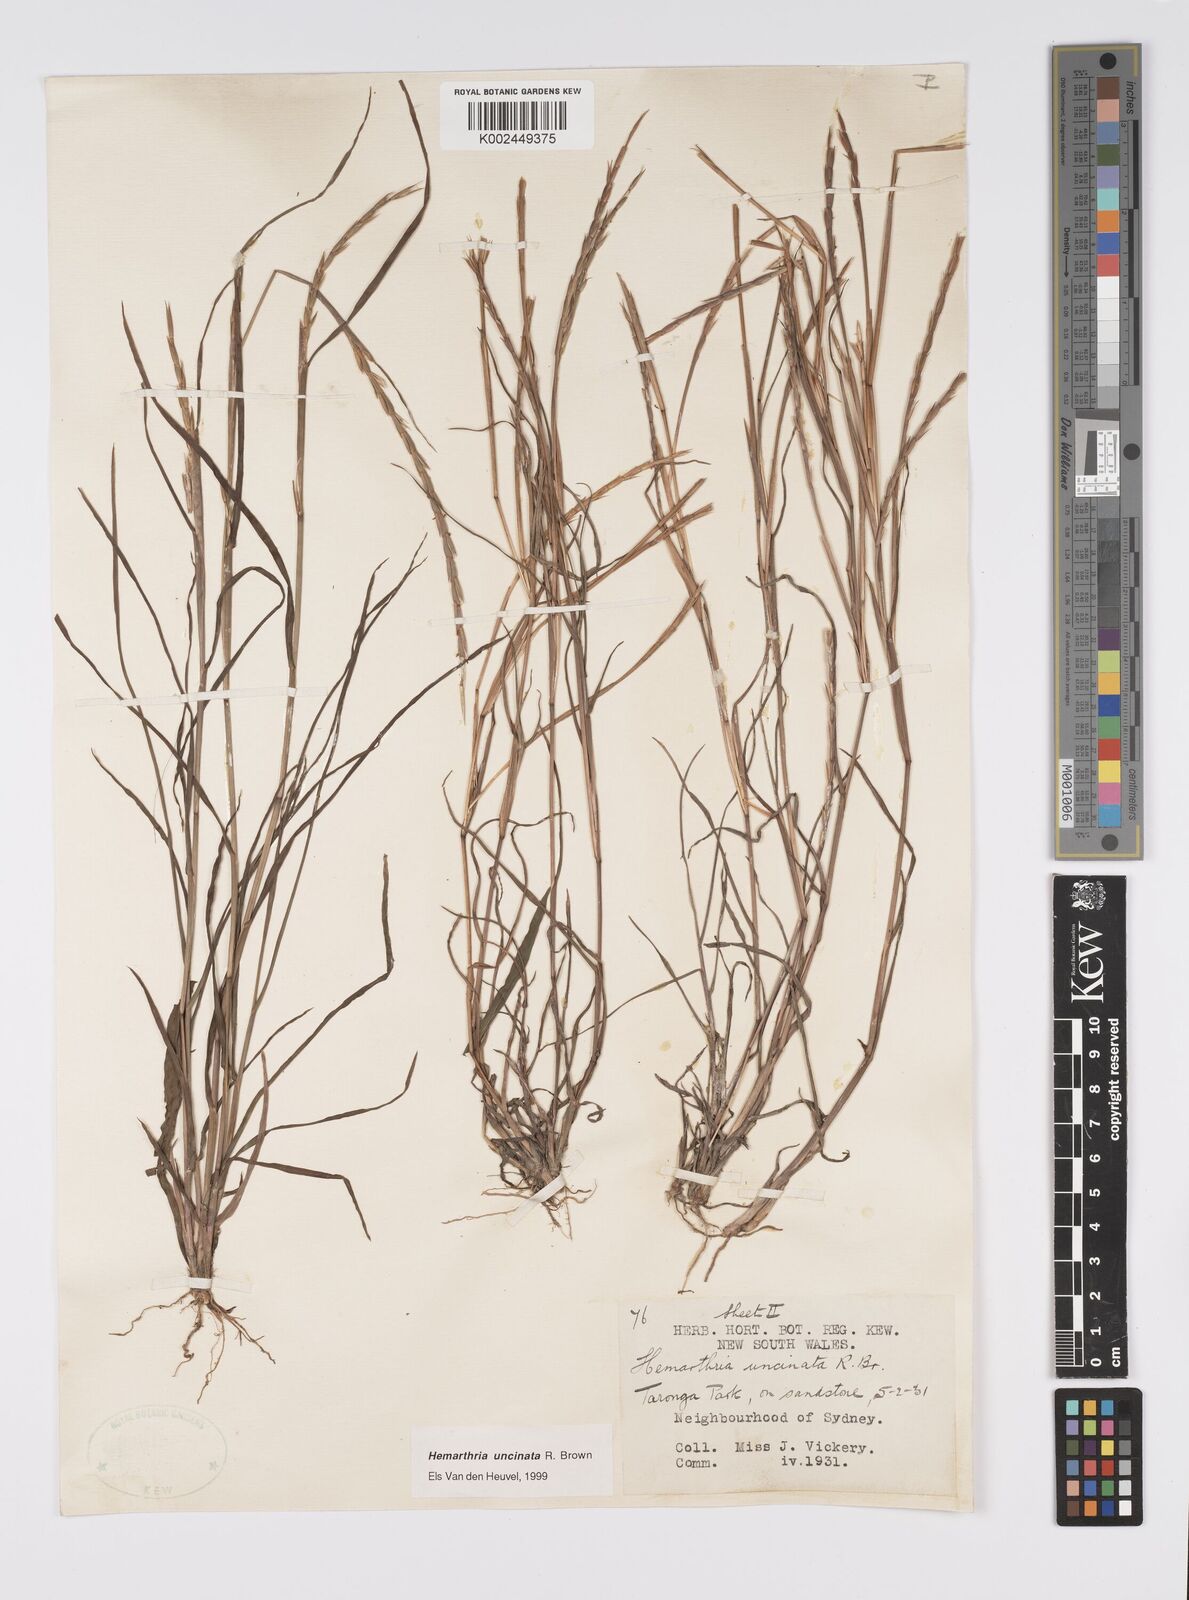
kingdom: Plantae
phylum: Tracheophyta
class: Liliopsida
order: Poales
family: Poaceae
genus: Hemarthria
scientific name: Hemarthria uncinata
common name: Matgrass
